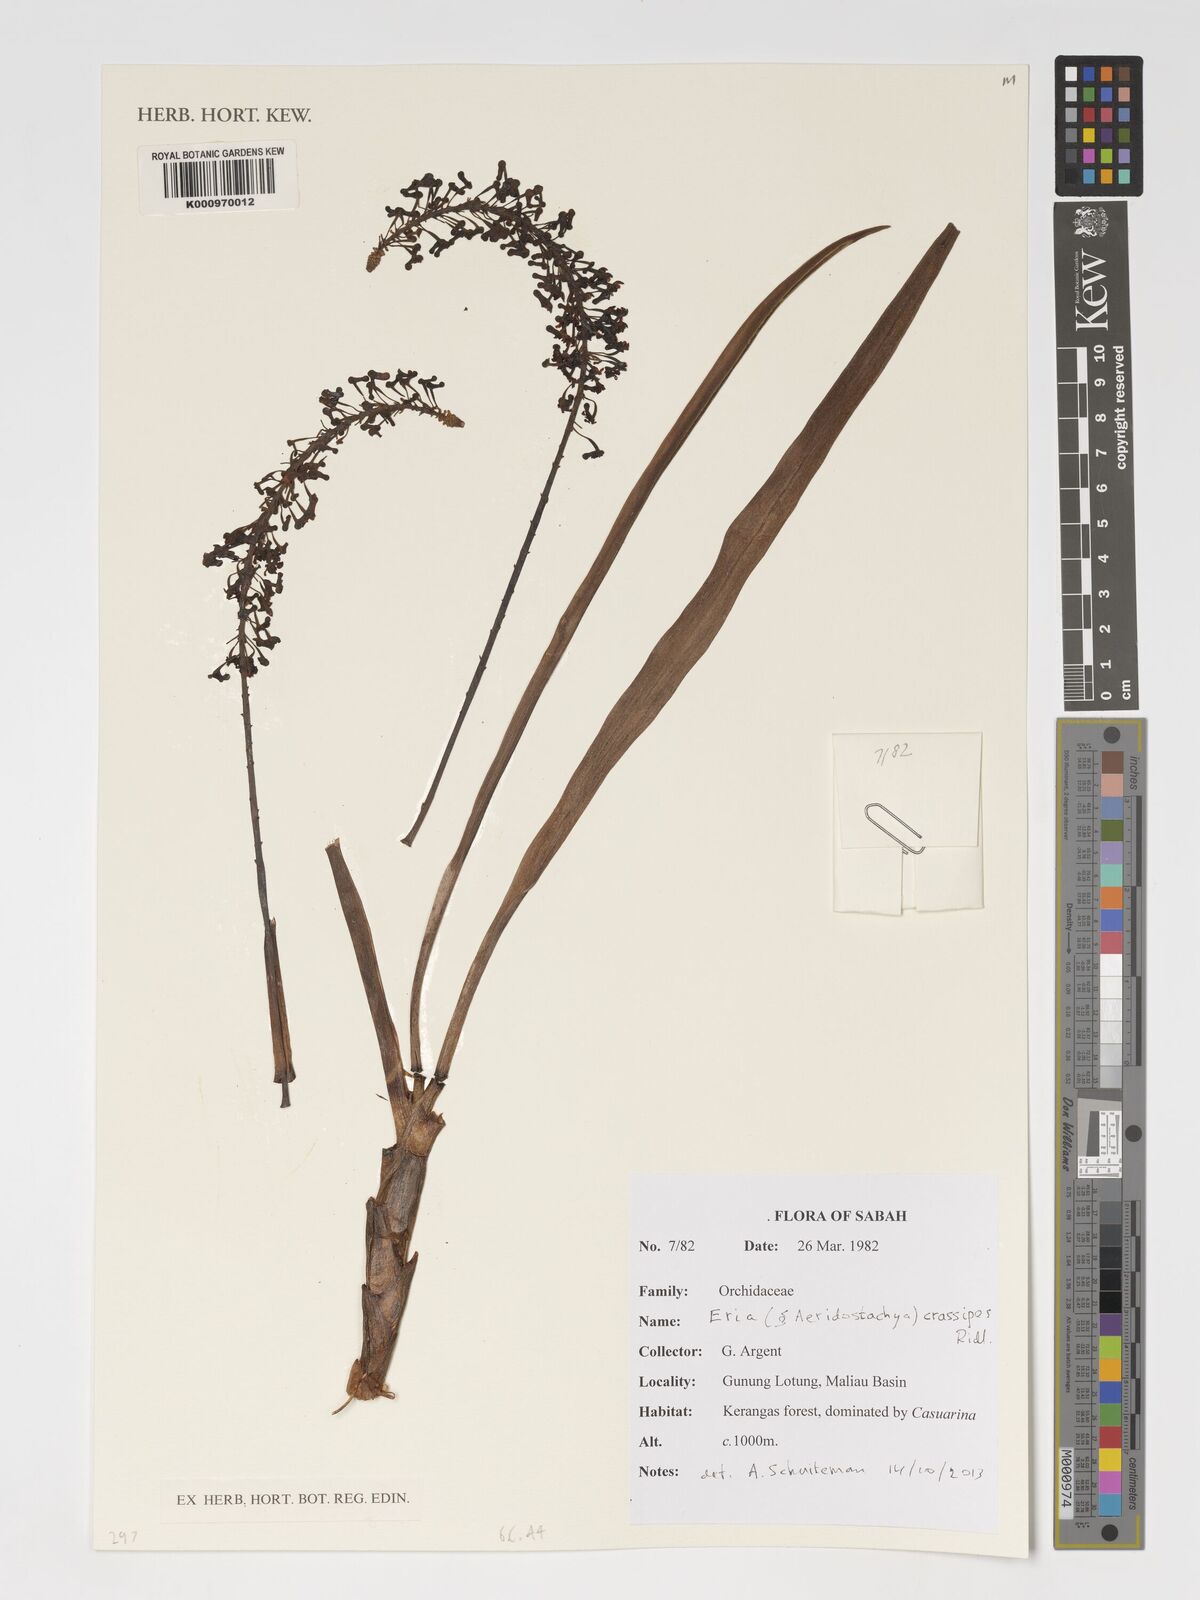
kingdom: Plantae
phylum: Tracheophyta
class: Liliopsida
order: Asparagales
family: Orchidaceae
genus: Aeridostachya
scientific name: Aeridostachya crassipes
